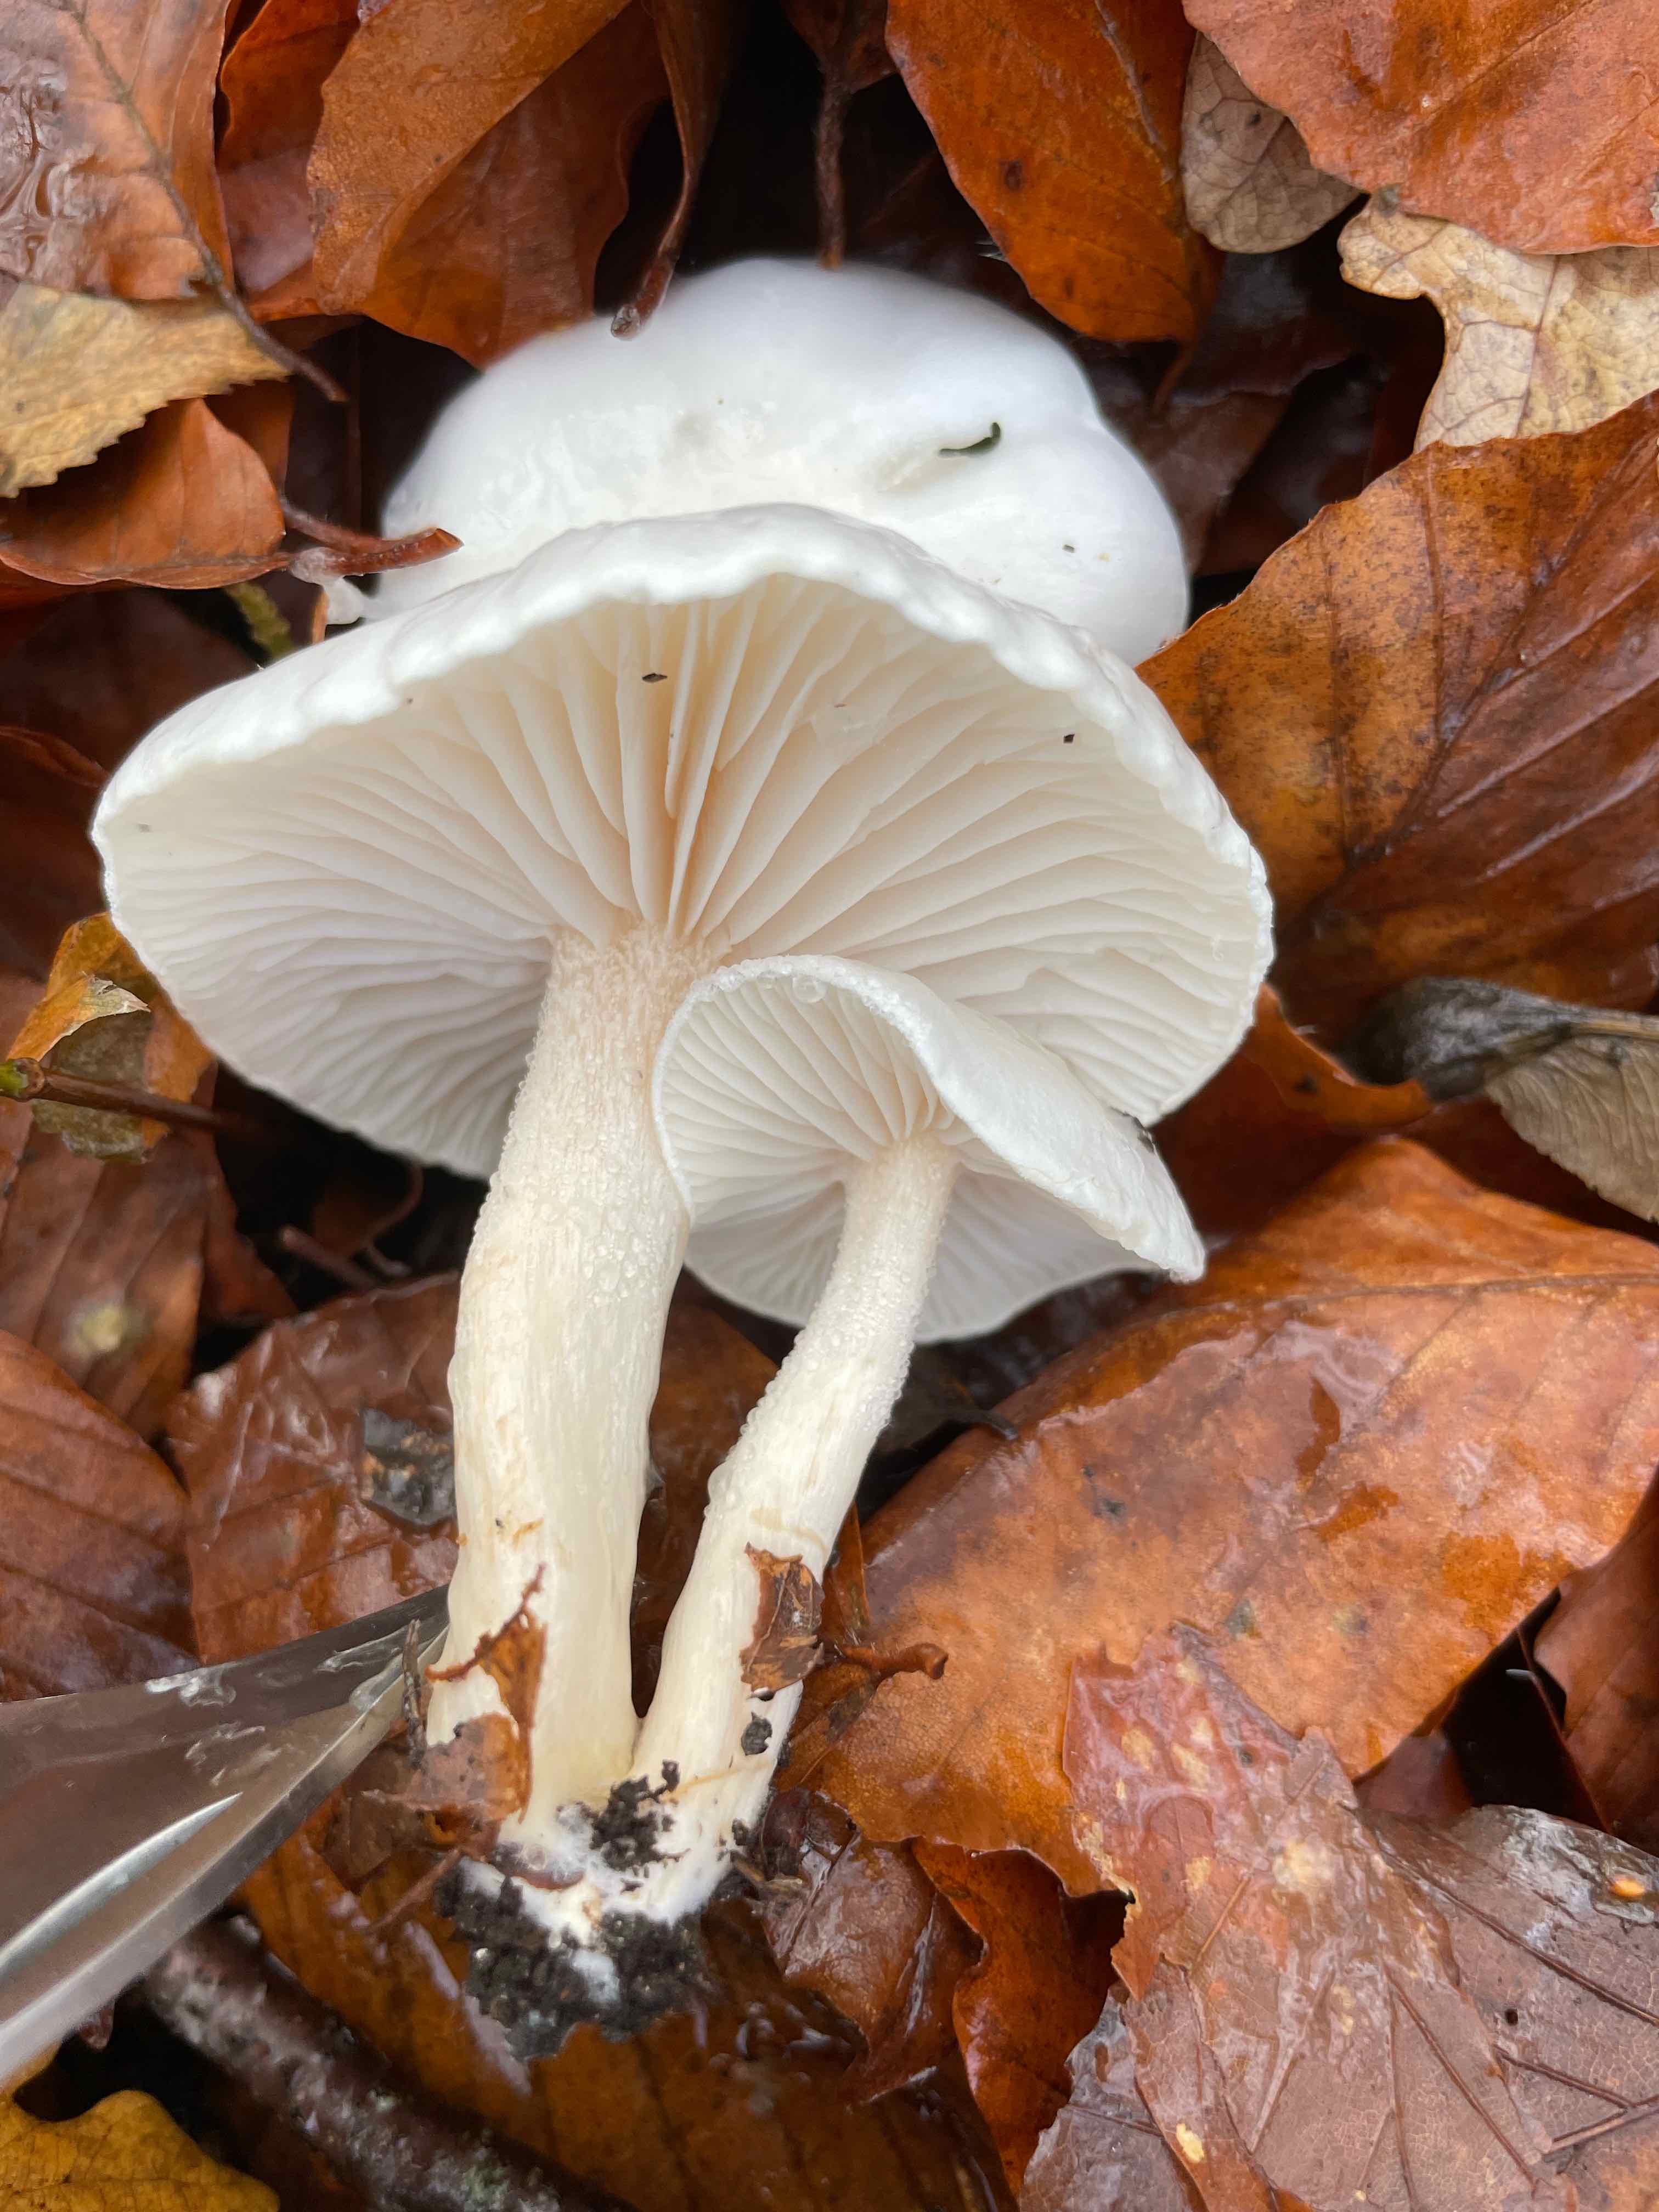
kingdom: Fungi
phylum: Basidiomycota
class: Agaricomycetes
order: Agaricales
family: Hygrophoraceae
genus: Hygrophorus
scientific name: Hygrophorus eburneus
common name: elfenbens-sneglehat
